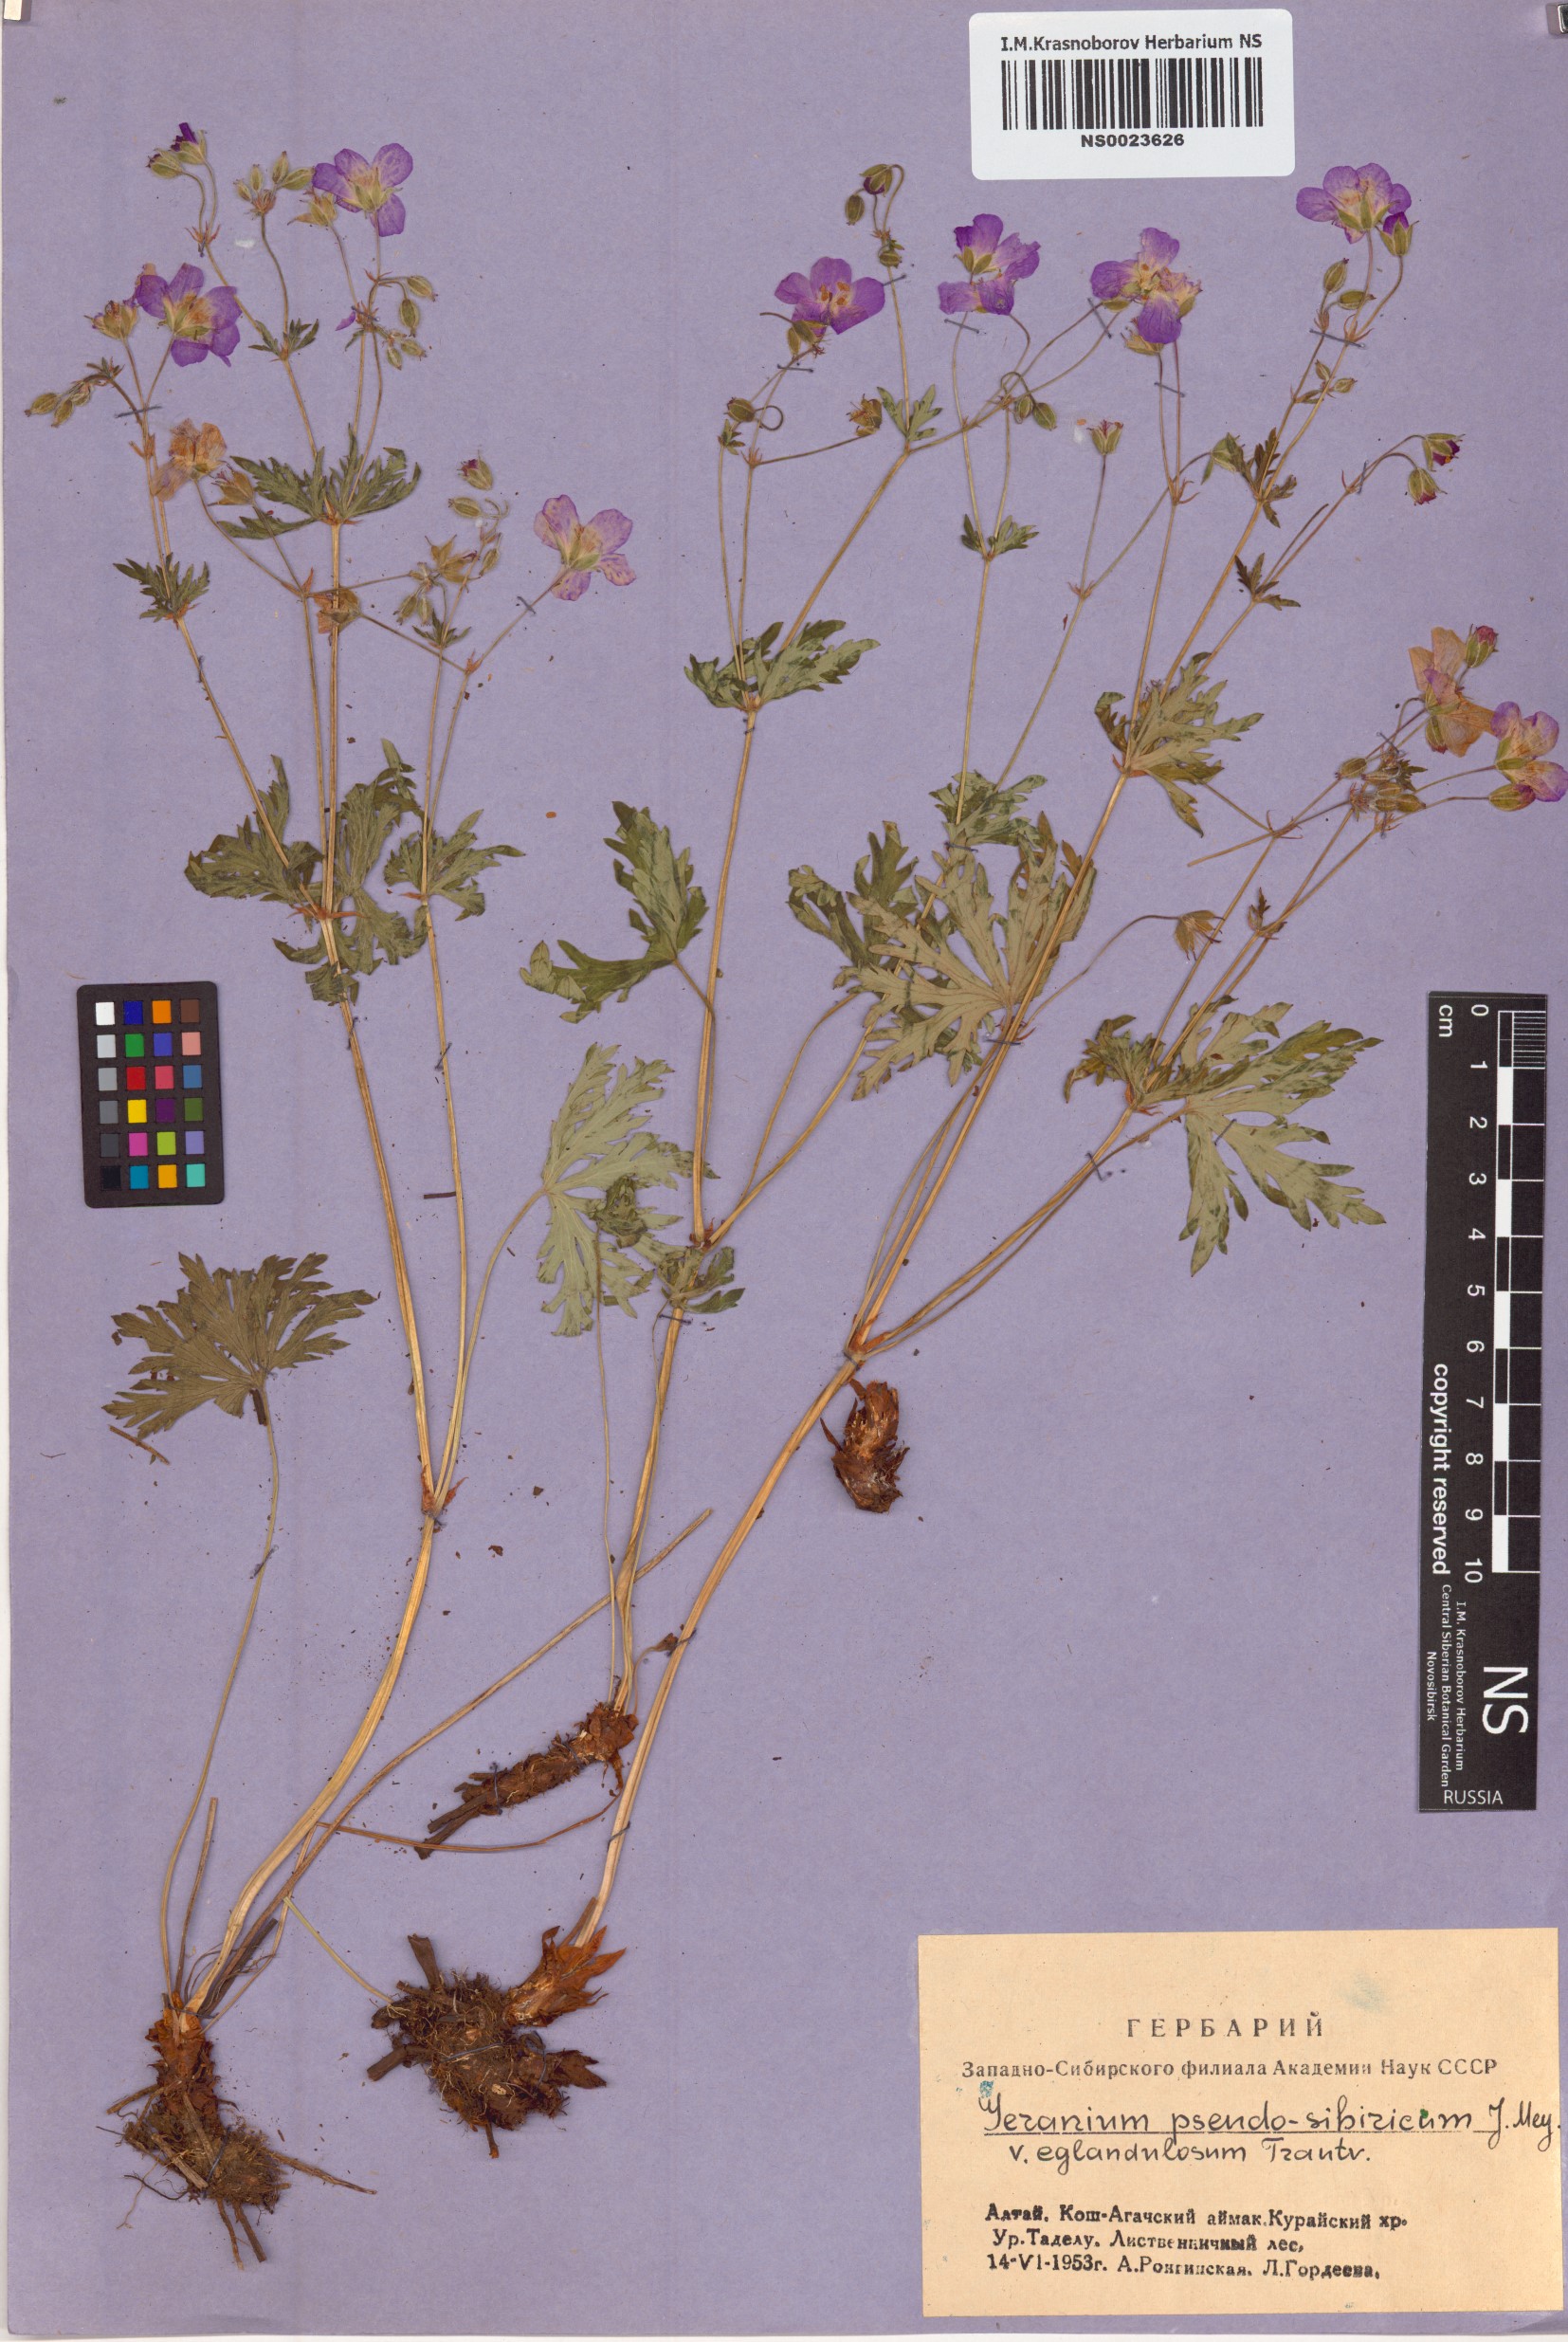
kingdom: Plantae
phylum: Tracheophyta
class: Magnoliopsida
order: Geraniales
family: Geraniaceae
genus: Geranium
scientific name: Geranium pseudosibiricum
